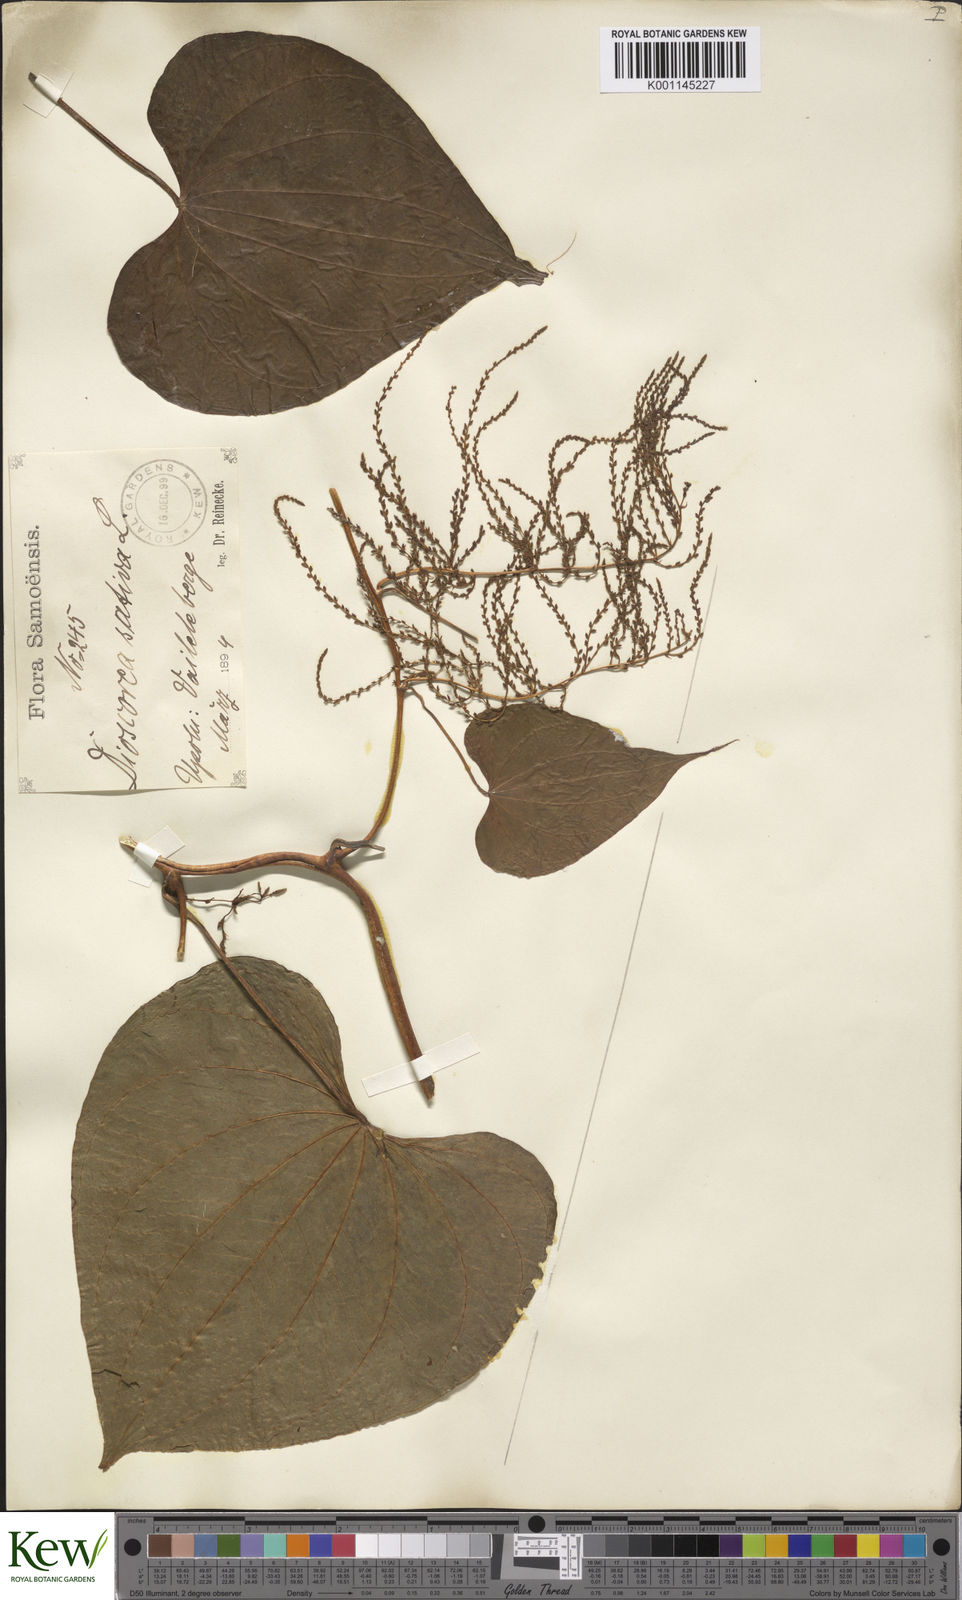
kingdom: Plantae
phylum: Tracheophyta
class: Liliopsida
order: Dioscoreales
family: Dioscoreaceae
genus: Dioscorea
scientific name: Dioscorea bulbifera
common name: Air yam
